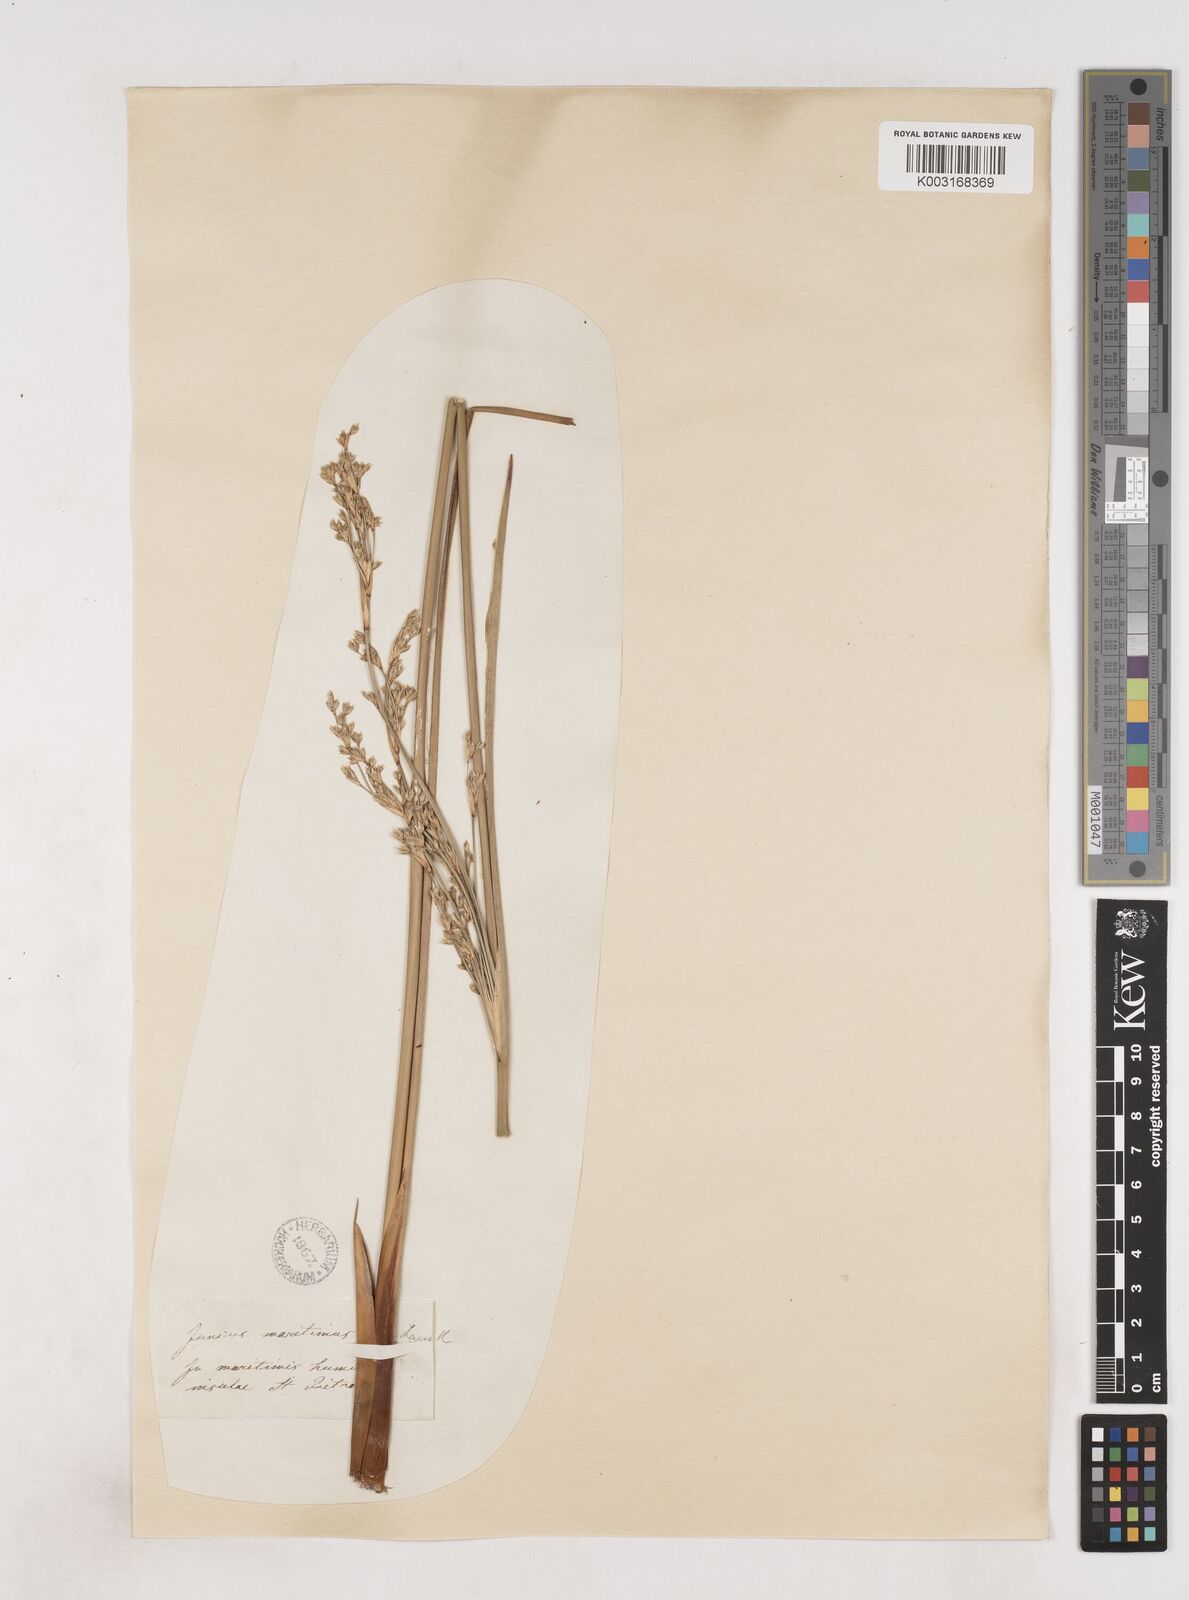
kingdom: Plantae
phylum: Tracheophyta
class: Liliopsida
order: Poales
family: Juncaceae
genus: Luzula
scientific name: Luzula sylvatica
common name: Great wood-rush
